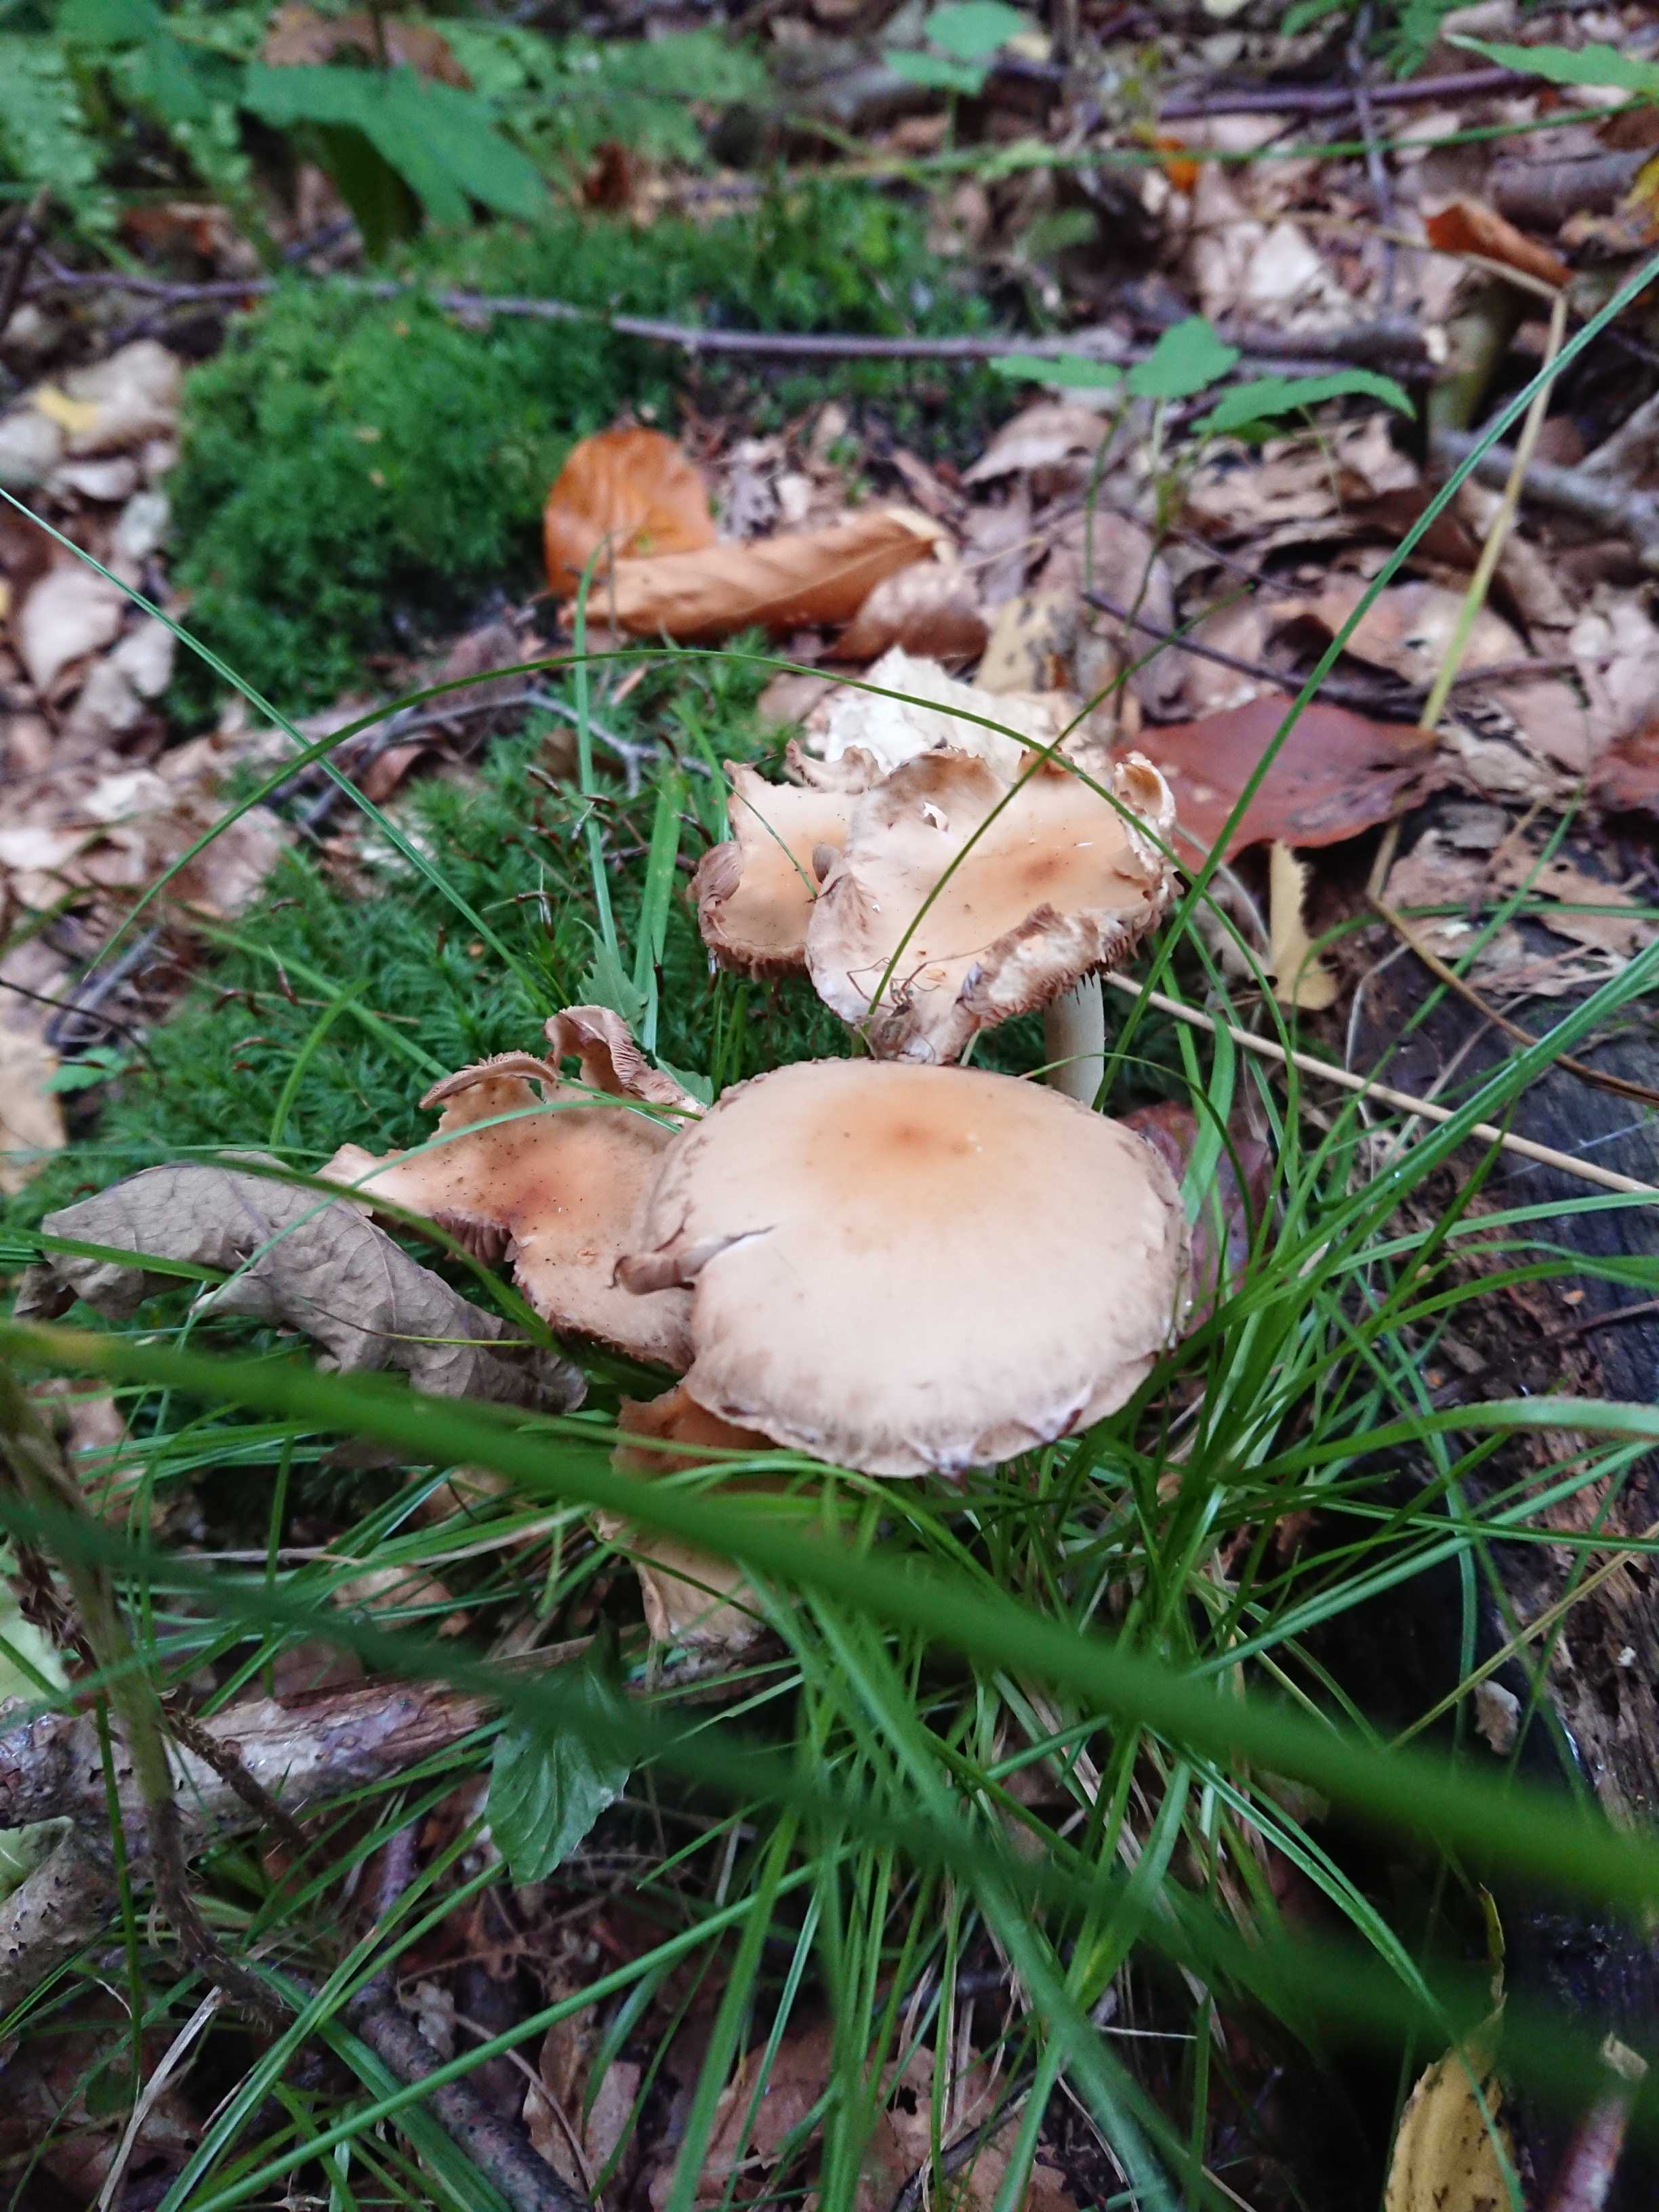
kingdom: Fungi
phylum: Basidiomycota
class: Agaricomycetes
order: Agaricales
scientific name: Agaricales
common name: champignonordenen
